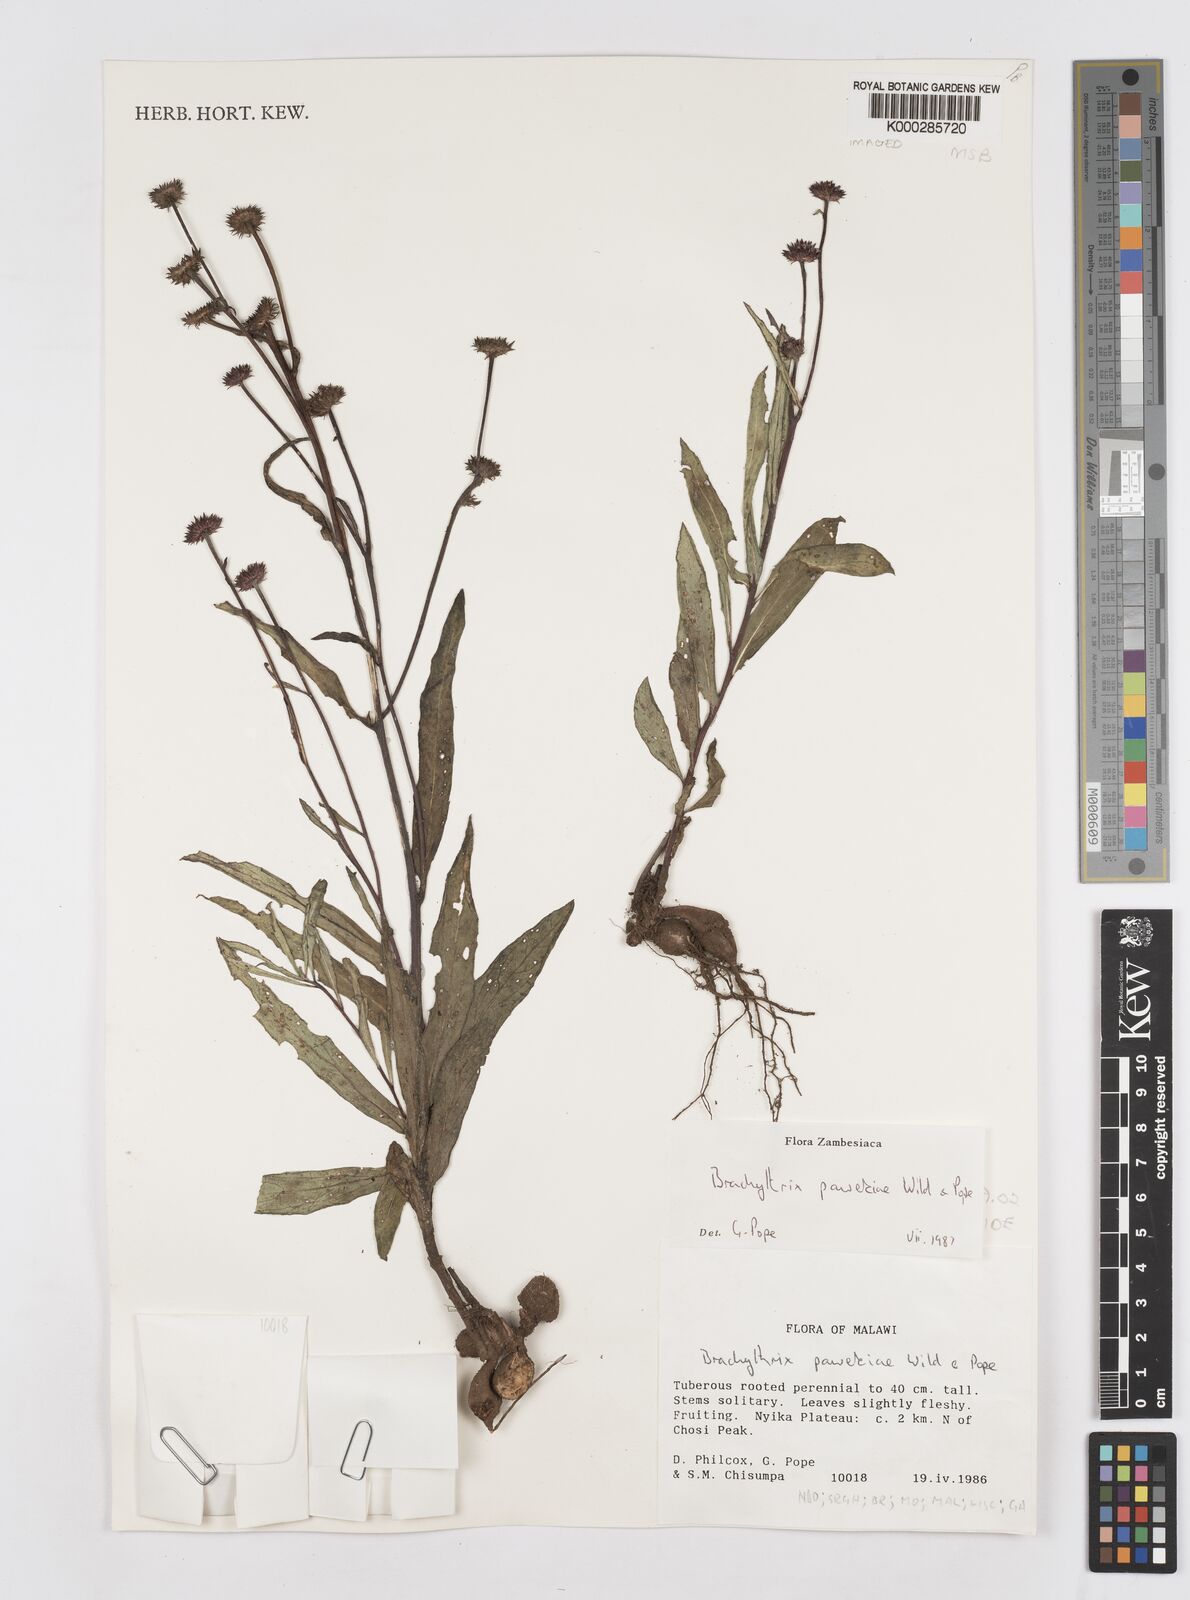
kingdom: Plantae
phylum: Tracheophyta
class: Magnoliopsida
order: Asterales
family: Asteraceae
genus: Brachythrix
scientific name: Brachythrix pawekiae
